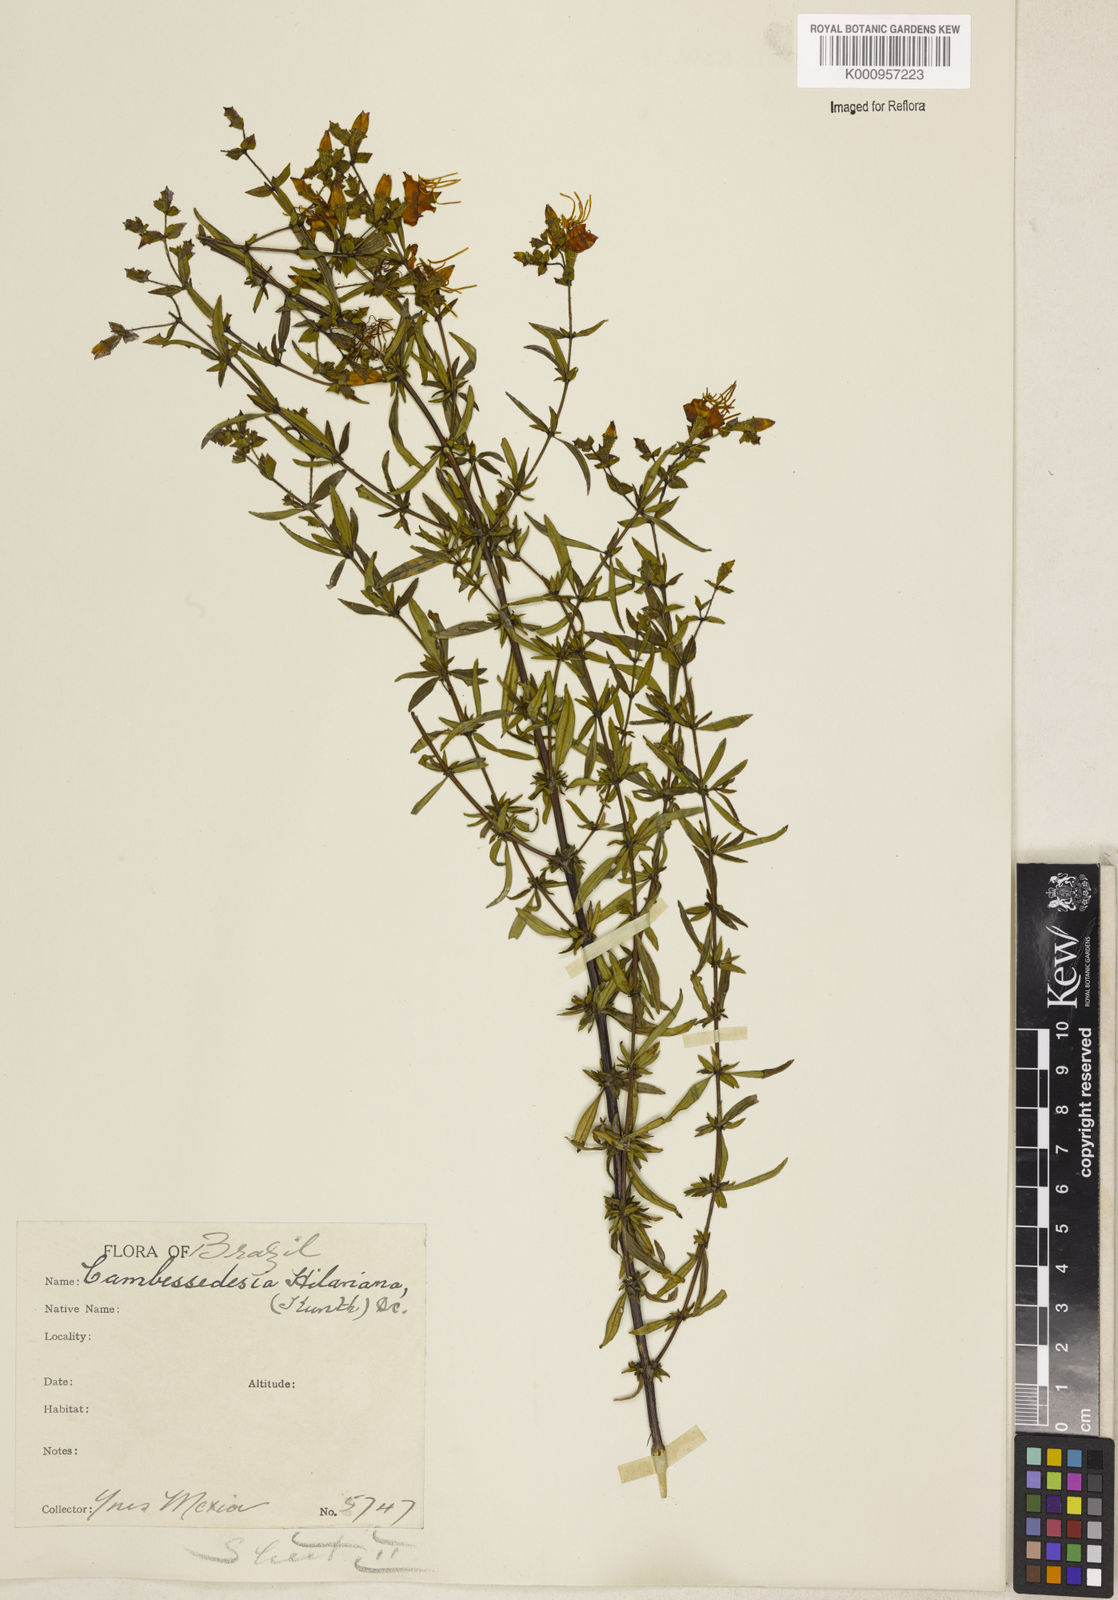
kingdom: Plantae
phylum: Tracheophyta
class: Magnoliopsida
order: Myrtales
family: Melastomataceae
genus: Cambessedesia
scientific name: Cambessedesia hilariana
